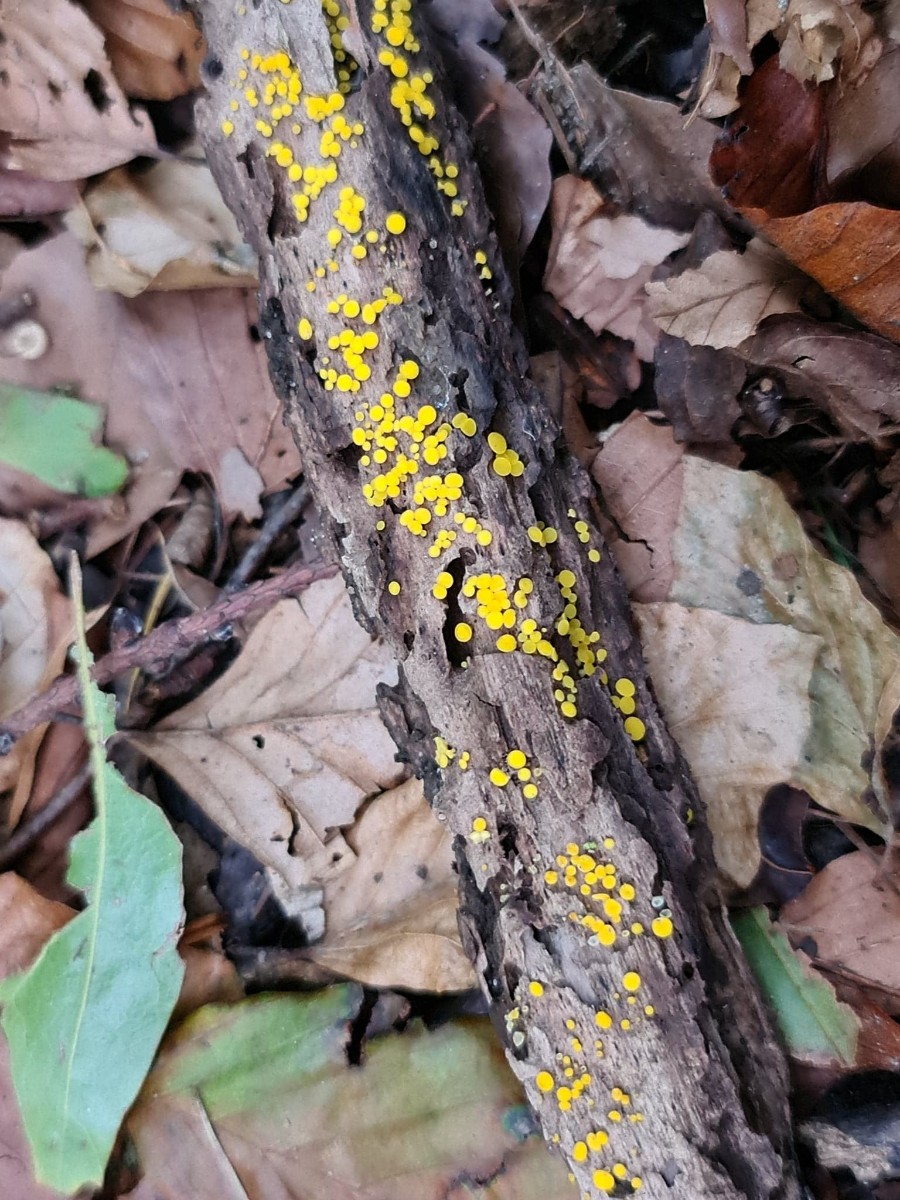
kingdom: Fungi
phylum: Ascomycota
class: Leotiomycetes
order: Helotiales
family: Pezizellaceae
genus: Calycina
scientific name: Calycina citrina
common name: almindelig gulskive
